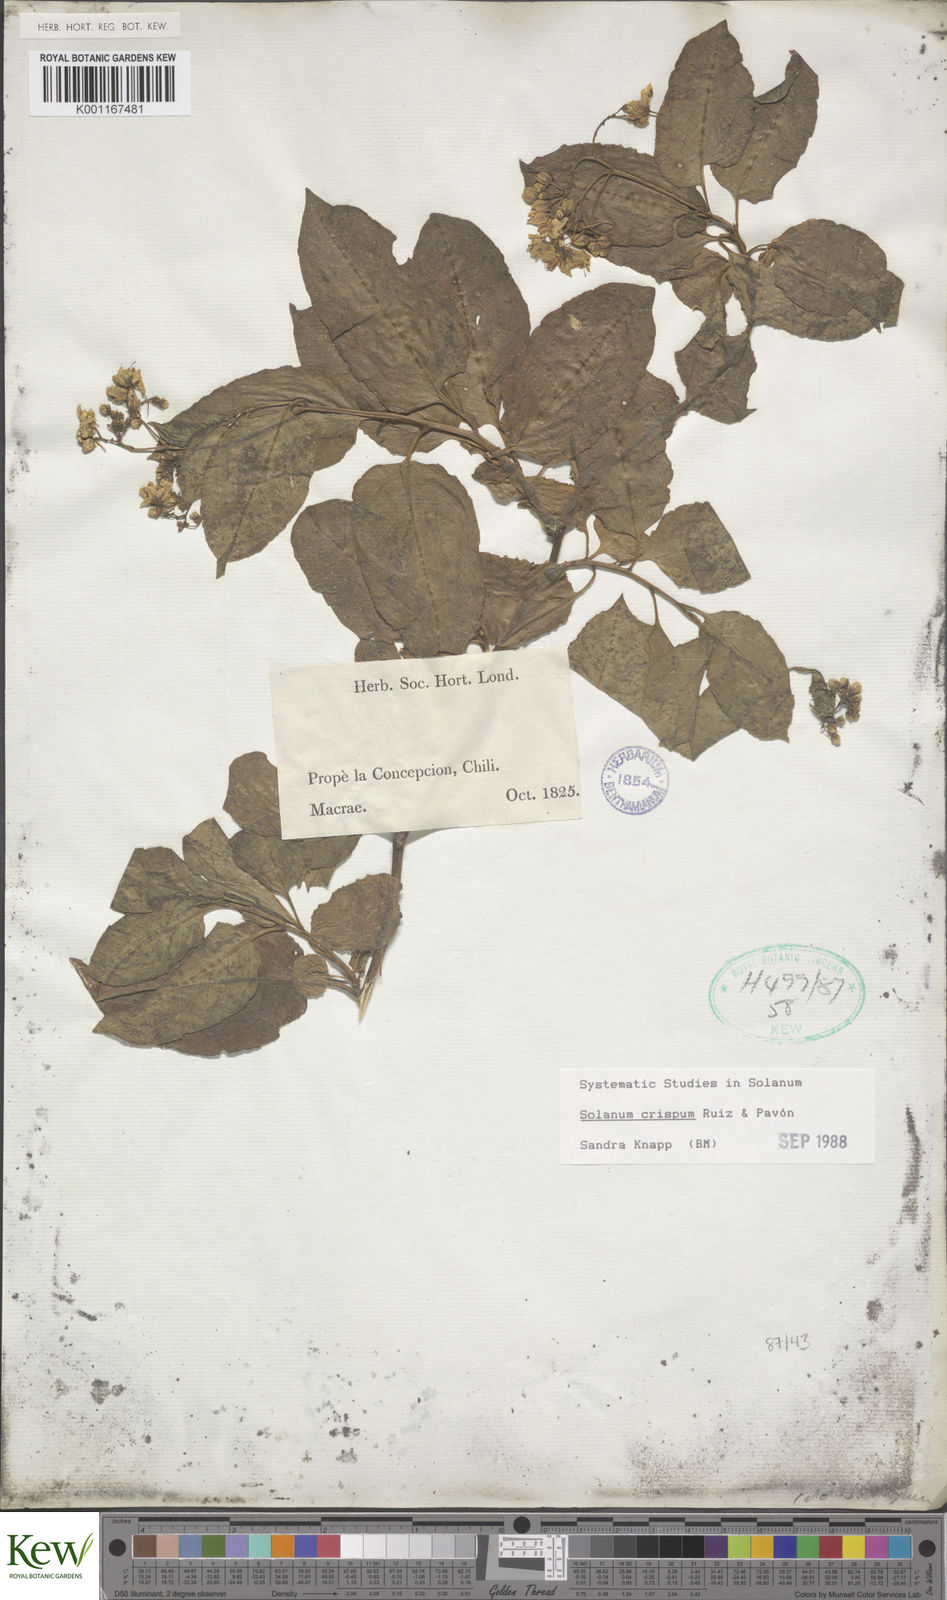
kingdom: Plantae
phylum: Tracheophyta
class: Magnoliopsida
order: Solanales
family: Solanaceae
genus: Solanum
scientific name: Solanum crispum
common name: Chilean nightshade
